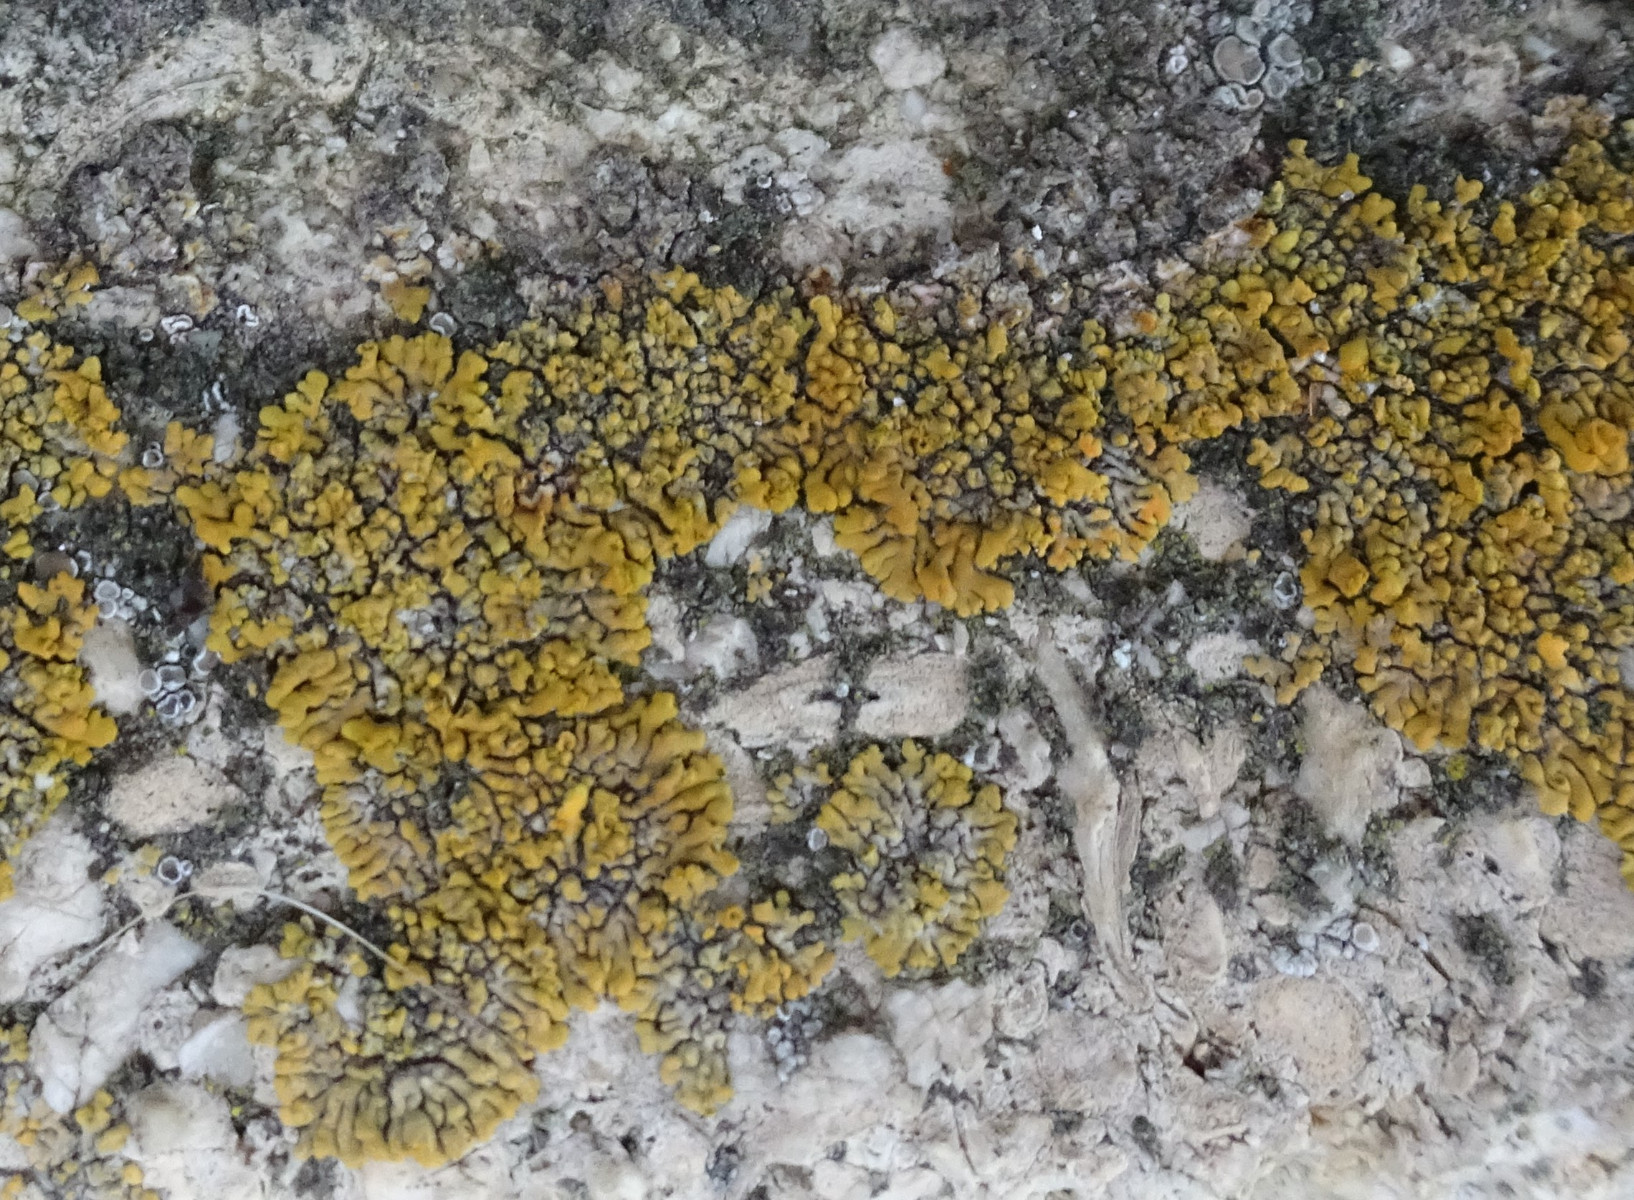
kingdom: Fungi
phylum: Ascomycota
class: Lecanoromycetes
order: Teloschistales
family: Teloschistaceae
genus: Calogaya
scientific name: Calogaya decipiens
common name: knudret orangelav
